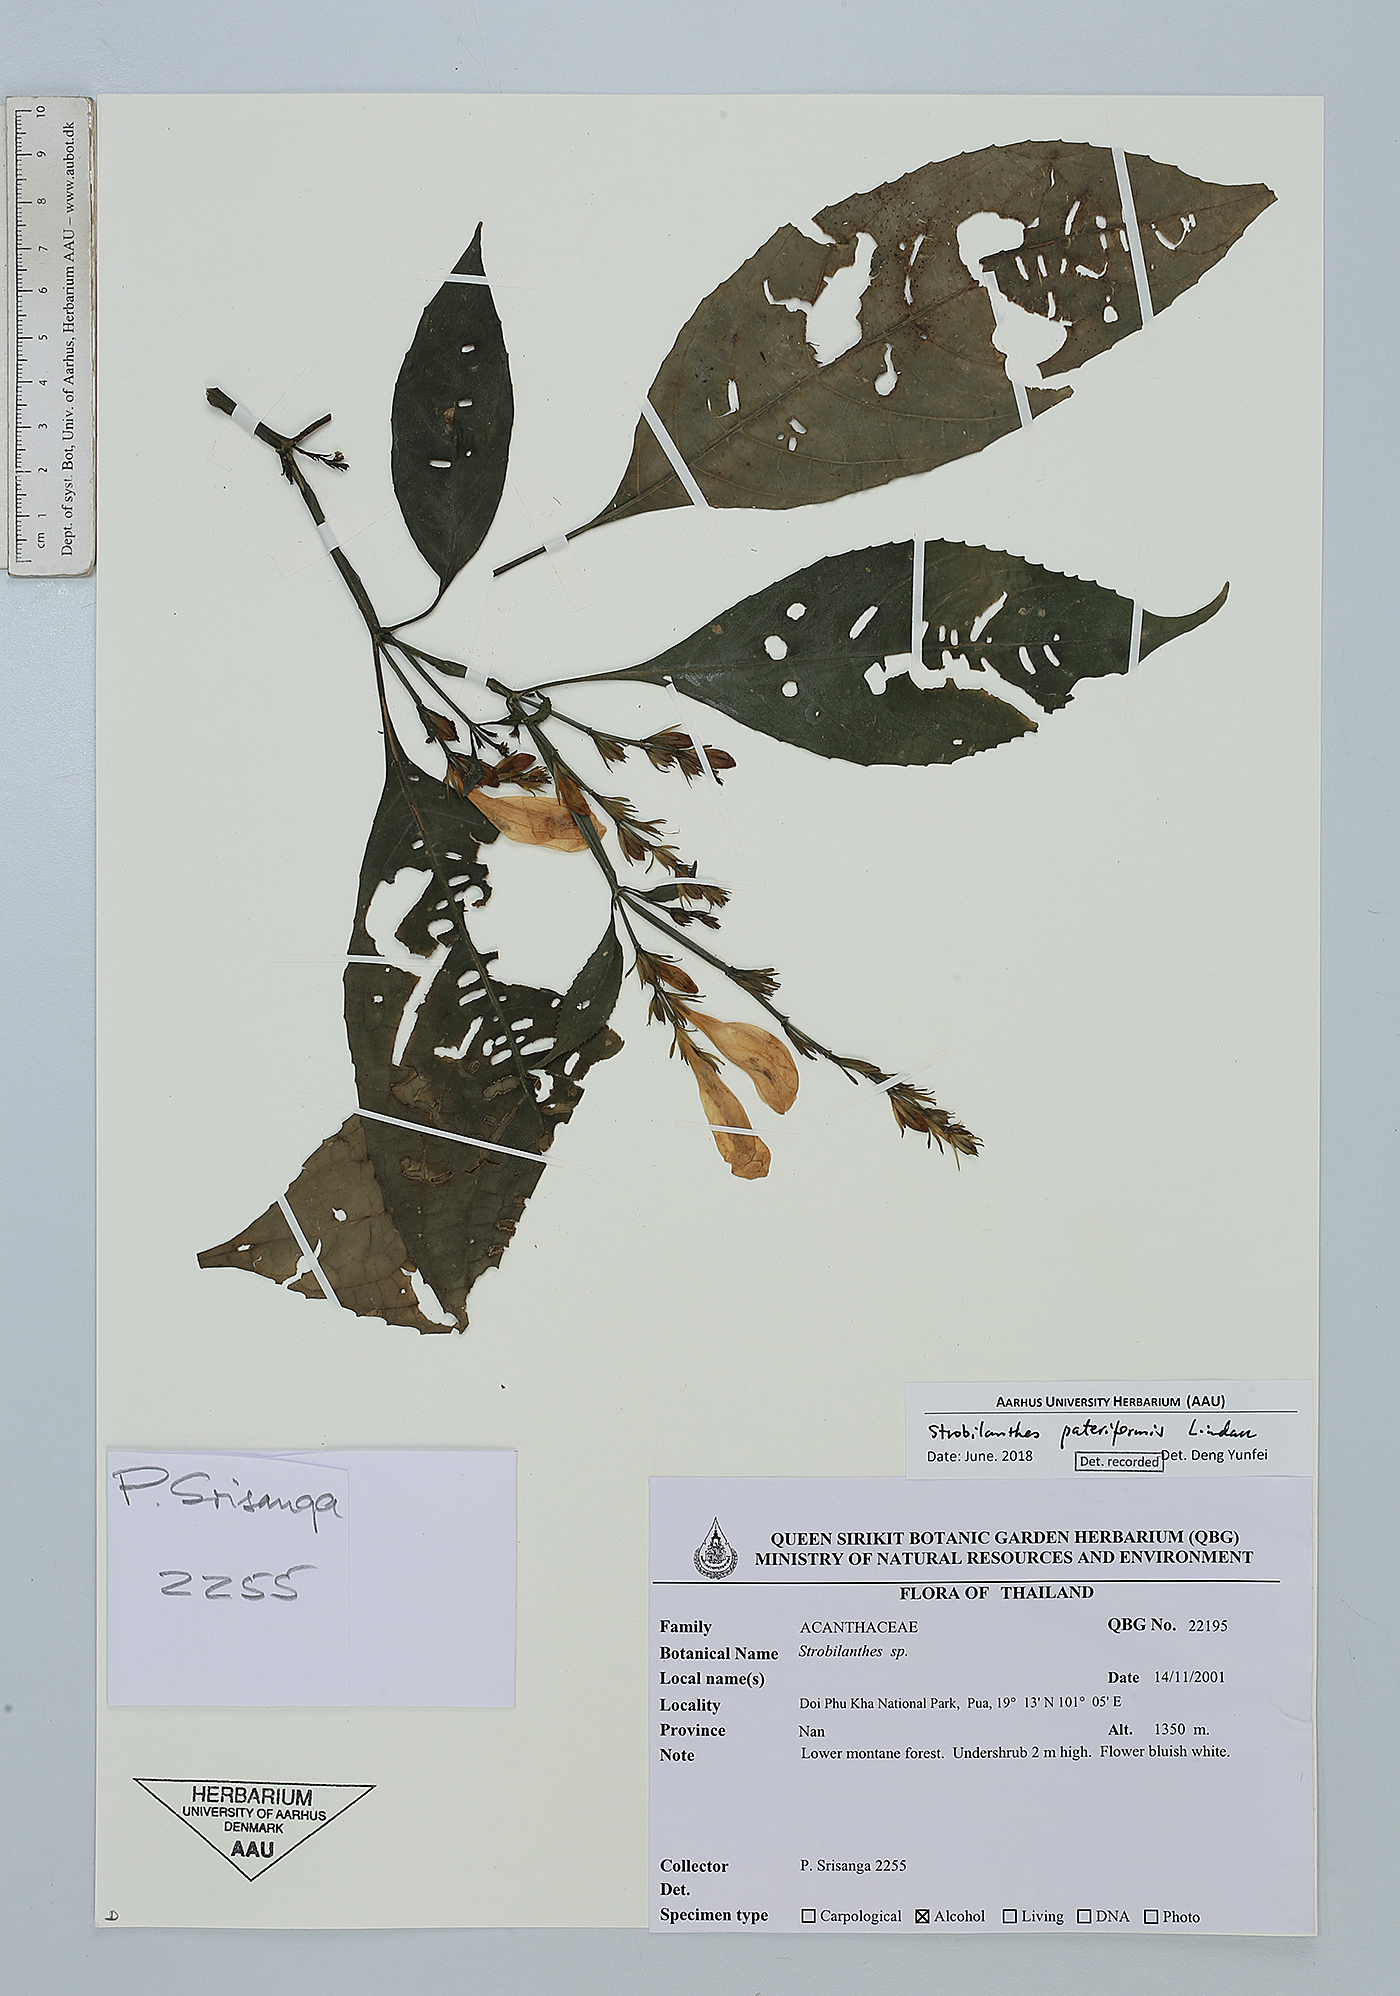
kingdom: Plantae
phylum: Tracheophyta
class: Magnoliopsida
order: Lamiales
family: Acanthaceae
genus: Strobilanthes
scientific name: Strobilanthes pateriformis
